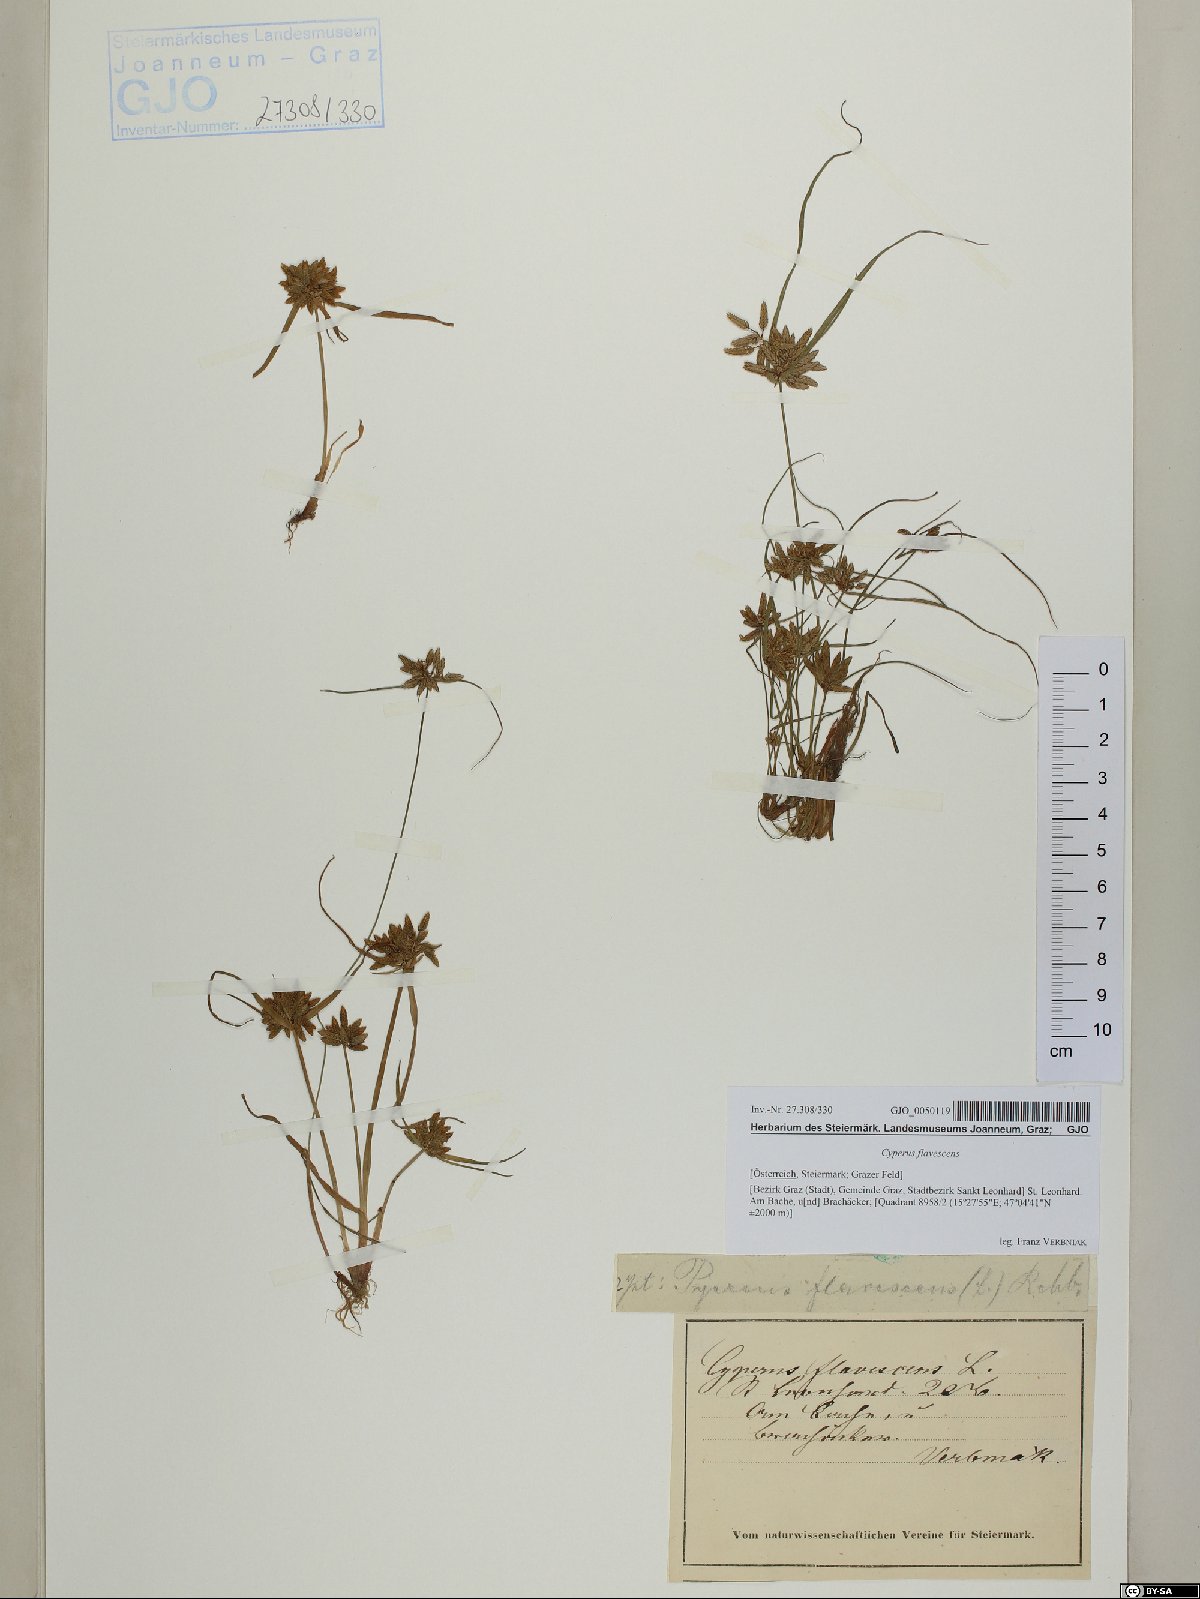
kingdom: Plantae
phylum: Tracheophyta
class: Liliopsida
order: Poales
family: Cyperaceae
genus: Cyperus
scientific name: Cyperus flavescens
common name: Yellow galingale
